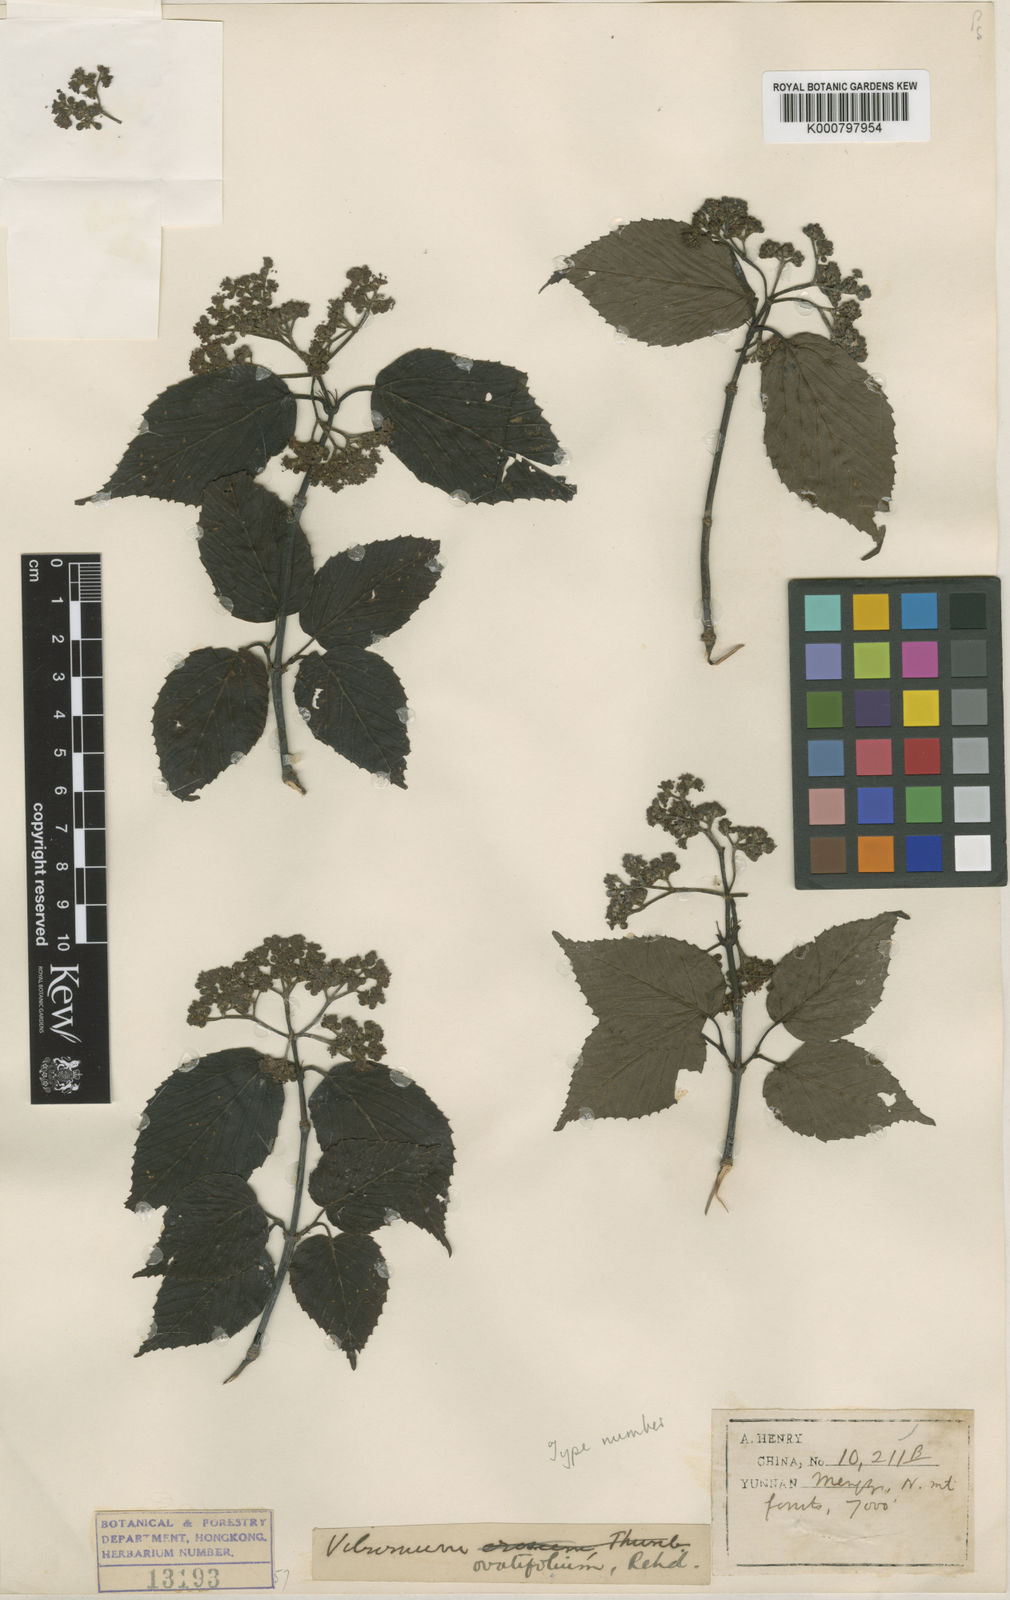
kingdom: Plantae
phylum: Tracheophyta
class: Magnoliopsida
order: Dipsacales
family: Viburnaceae
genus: Viburnum
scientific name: Viburnum betulifolium
